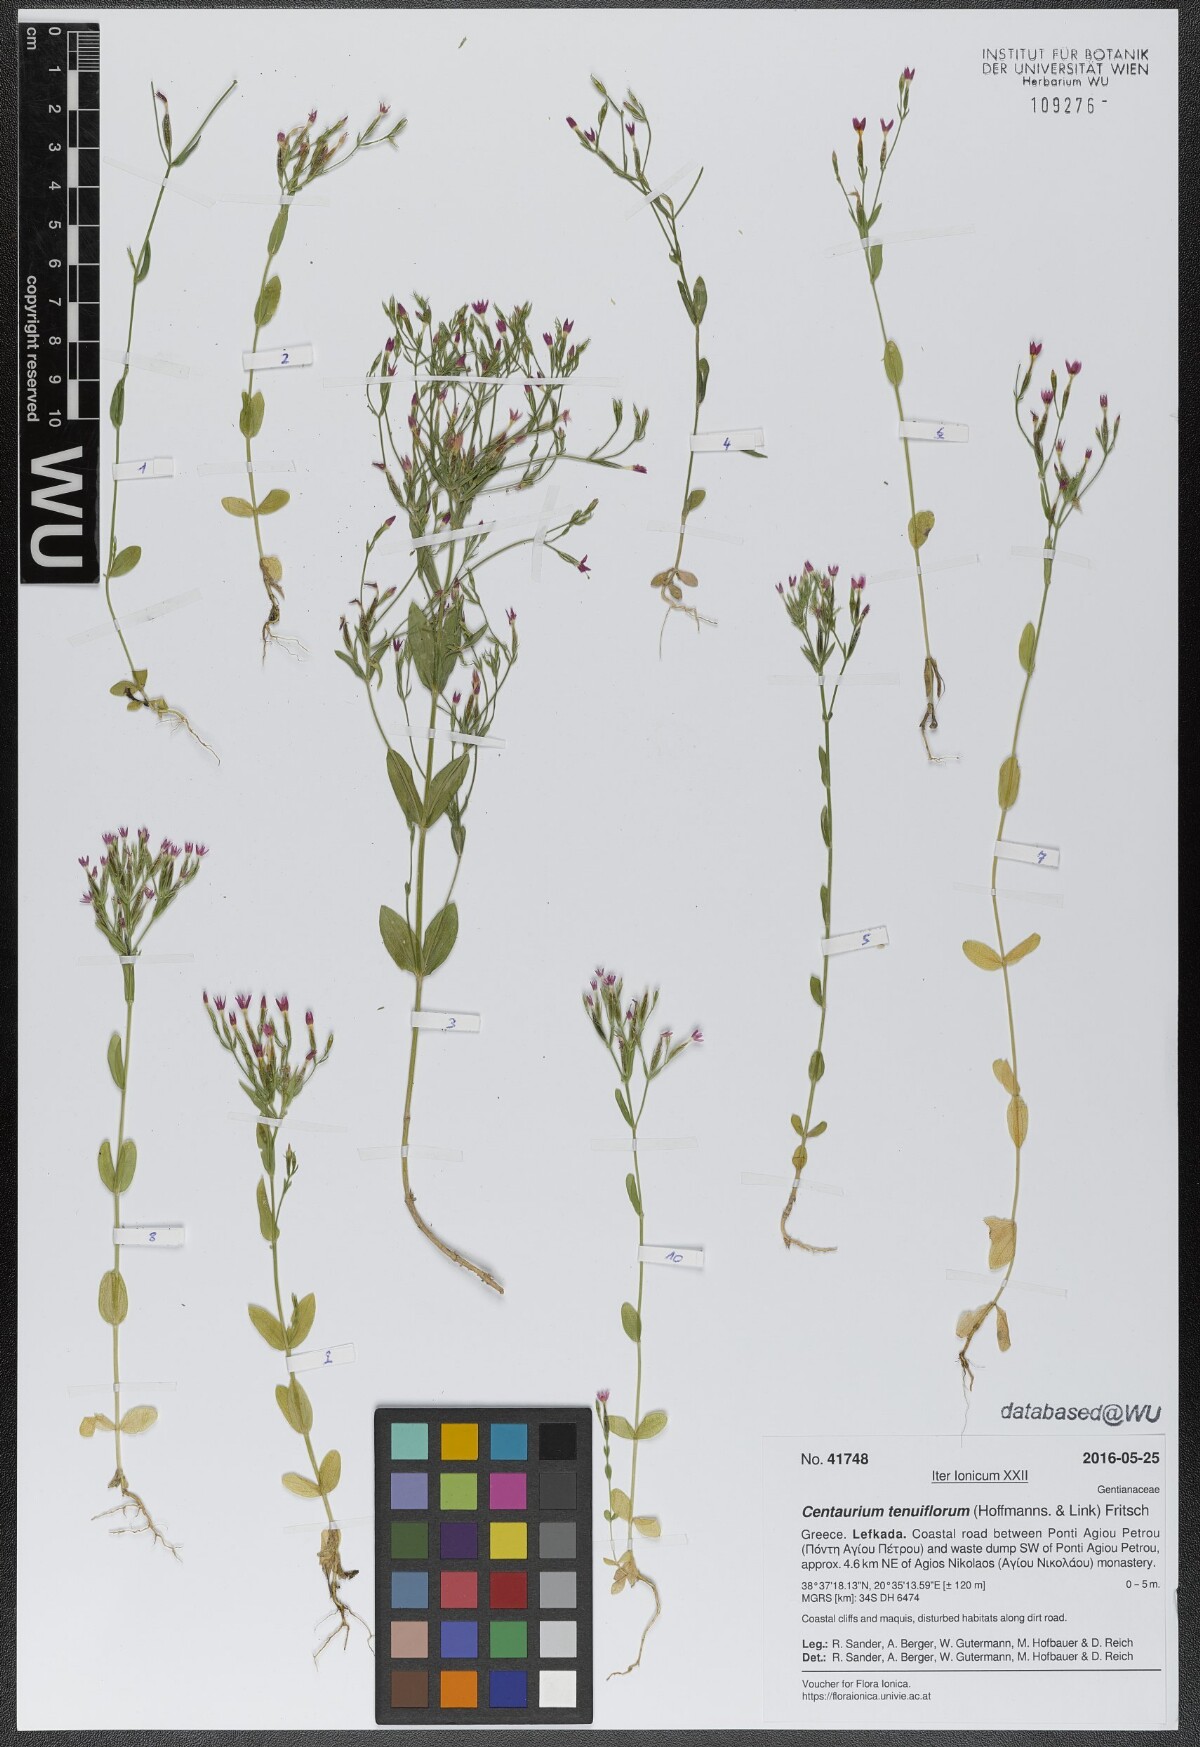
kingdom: Plantae
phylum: Tracheophyta
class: Magnoliopsida
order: Gentianales
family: Gentianaceae
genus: Centaurium
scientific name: Centaurium tenuiflorum
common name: Slender centaury
